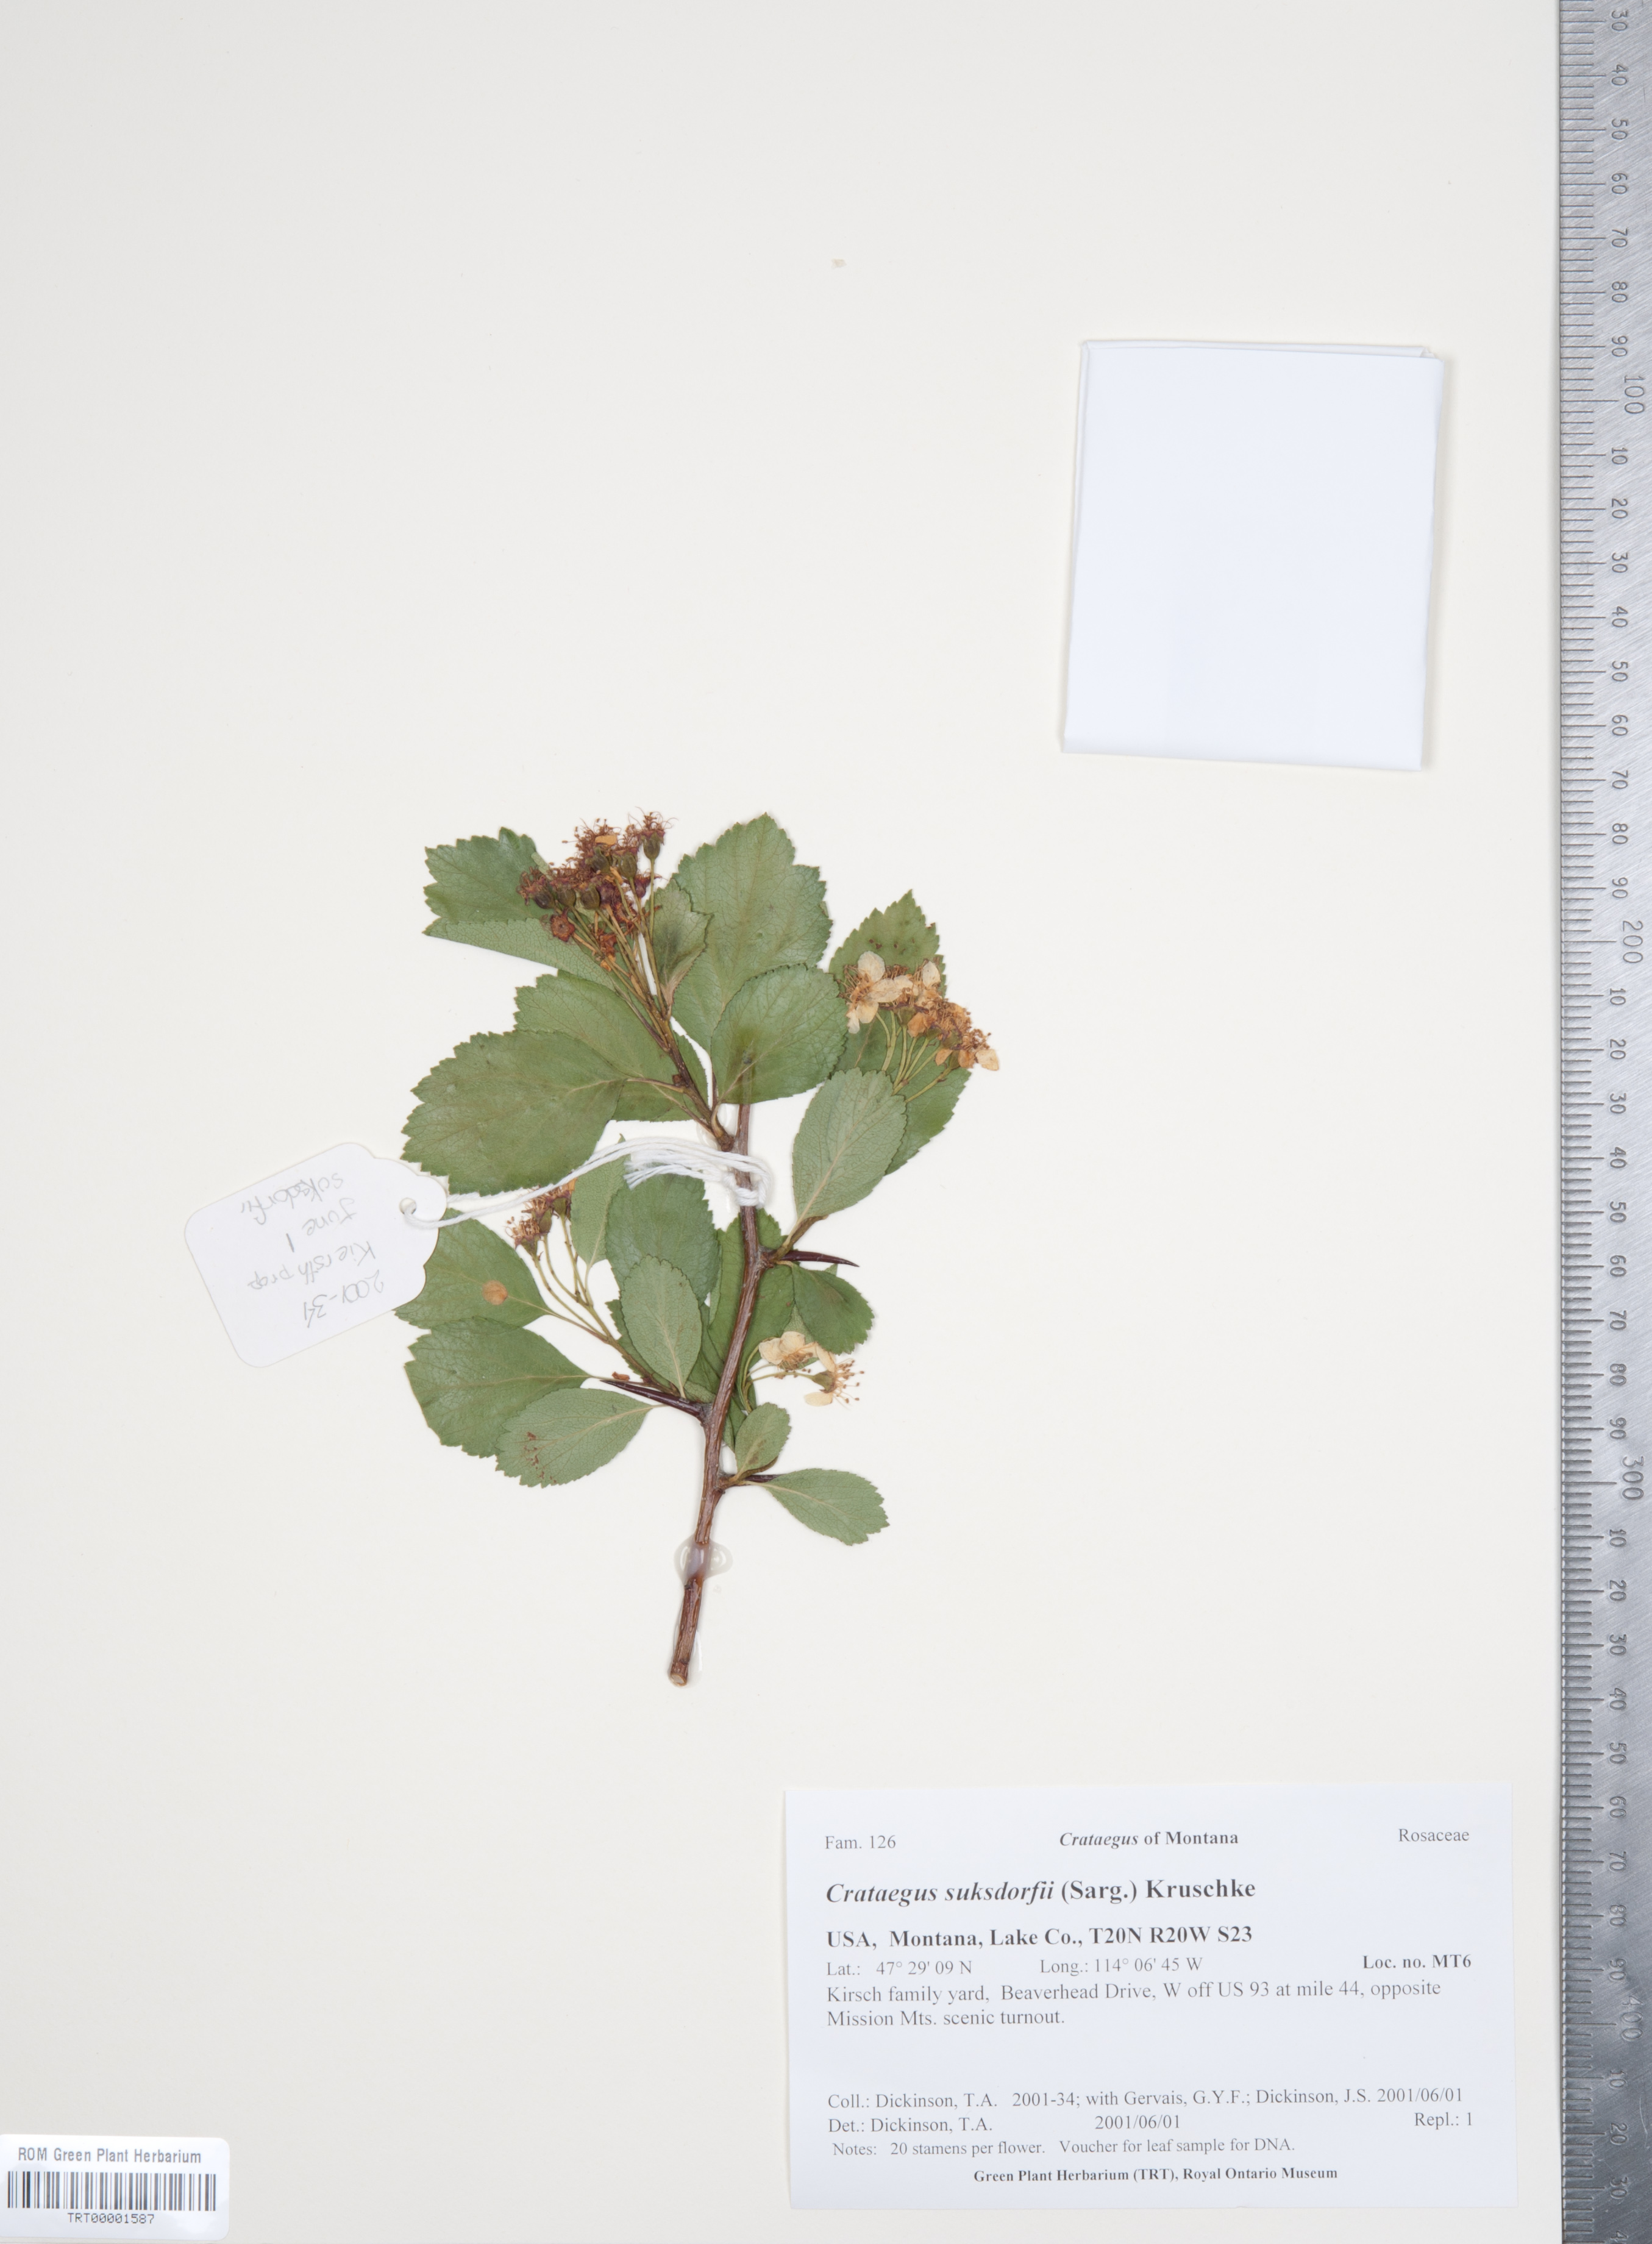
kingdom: Plantae
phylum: Tracheophyta
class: Magnoliopsida
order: Rosales
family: Rosaceae
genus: Crataegus
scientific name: Crataegus gaylussacia
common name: Huckleberry hawthorn
